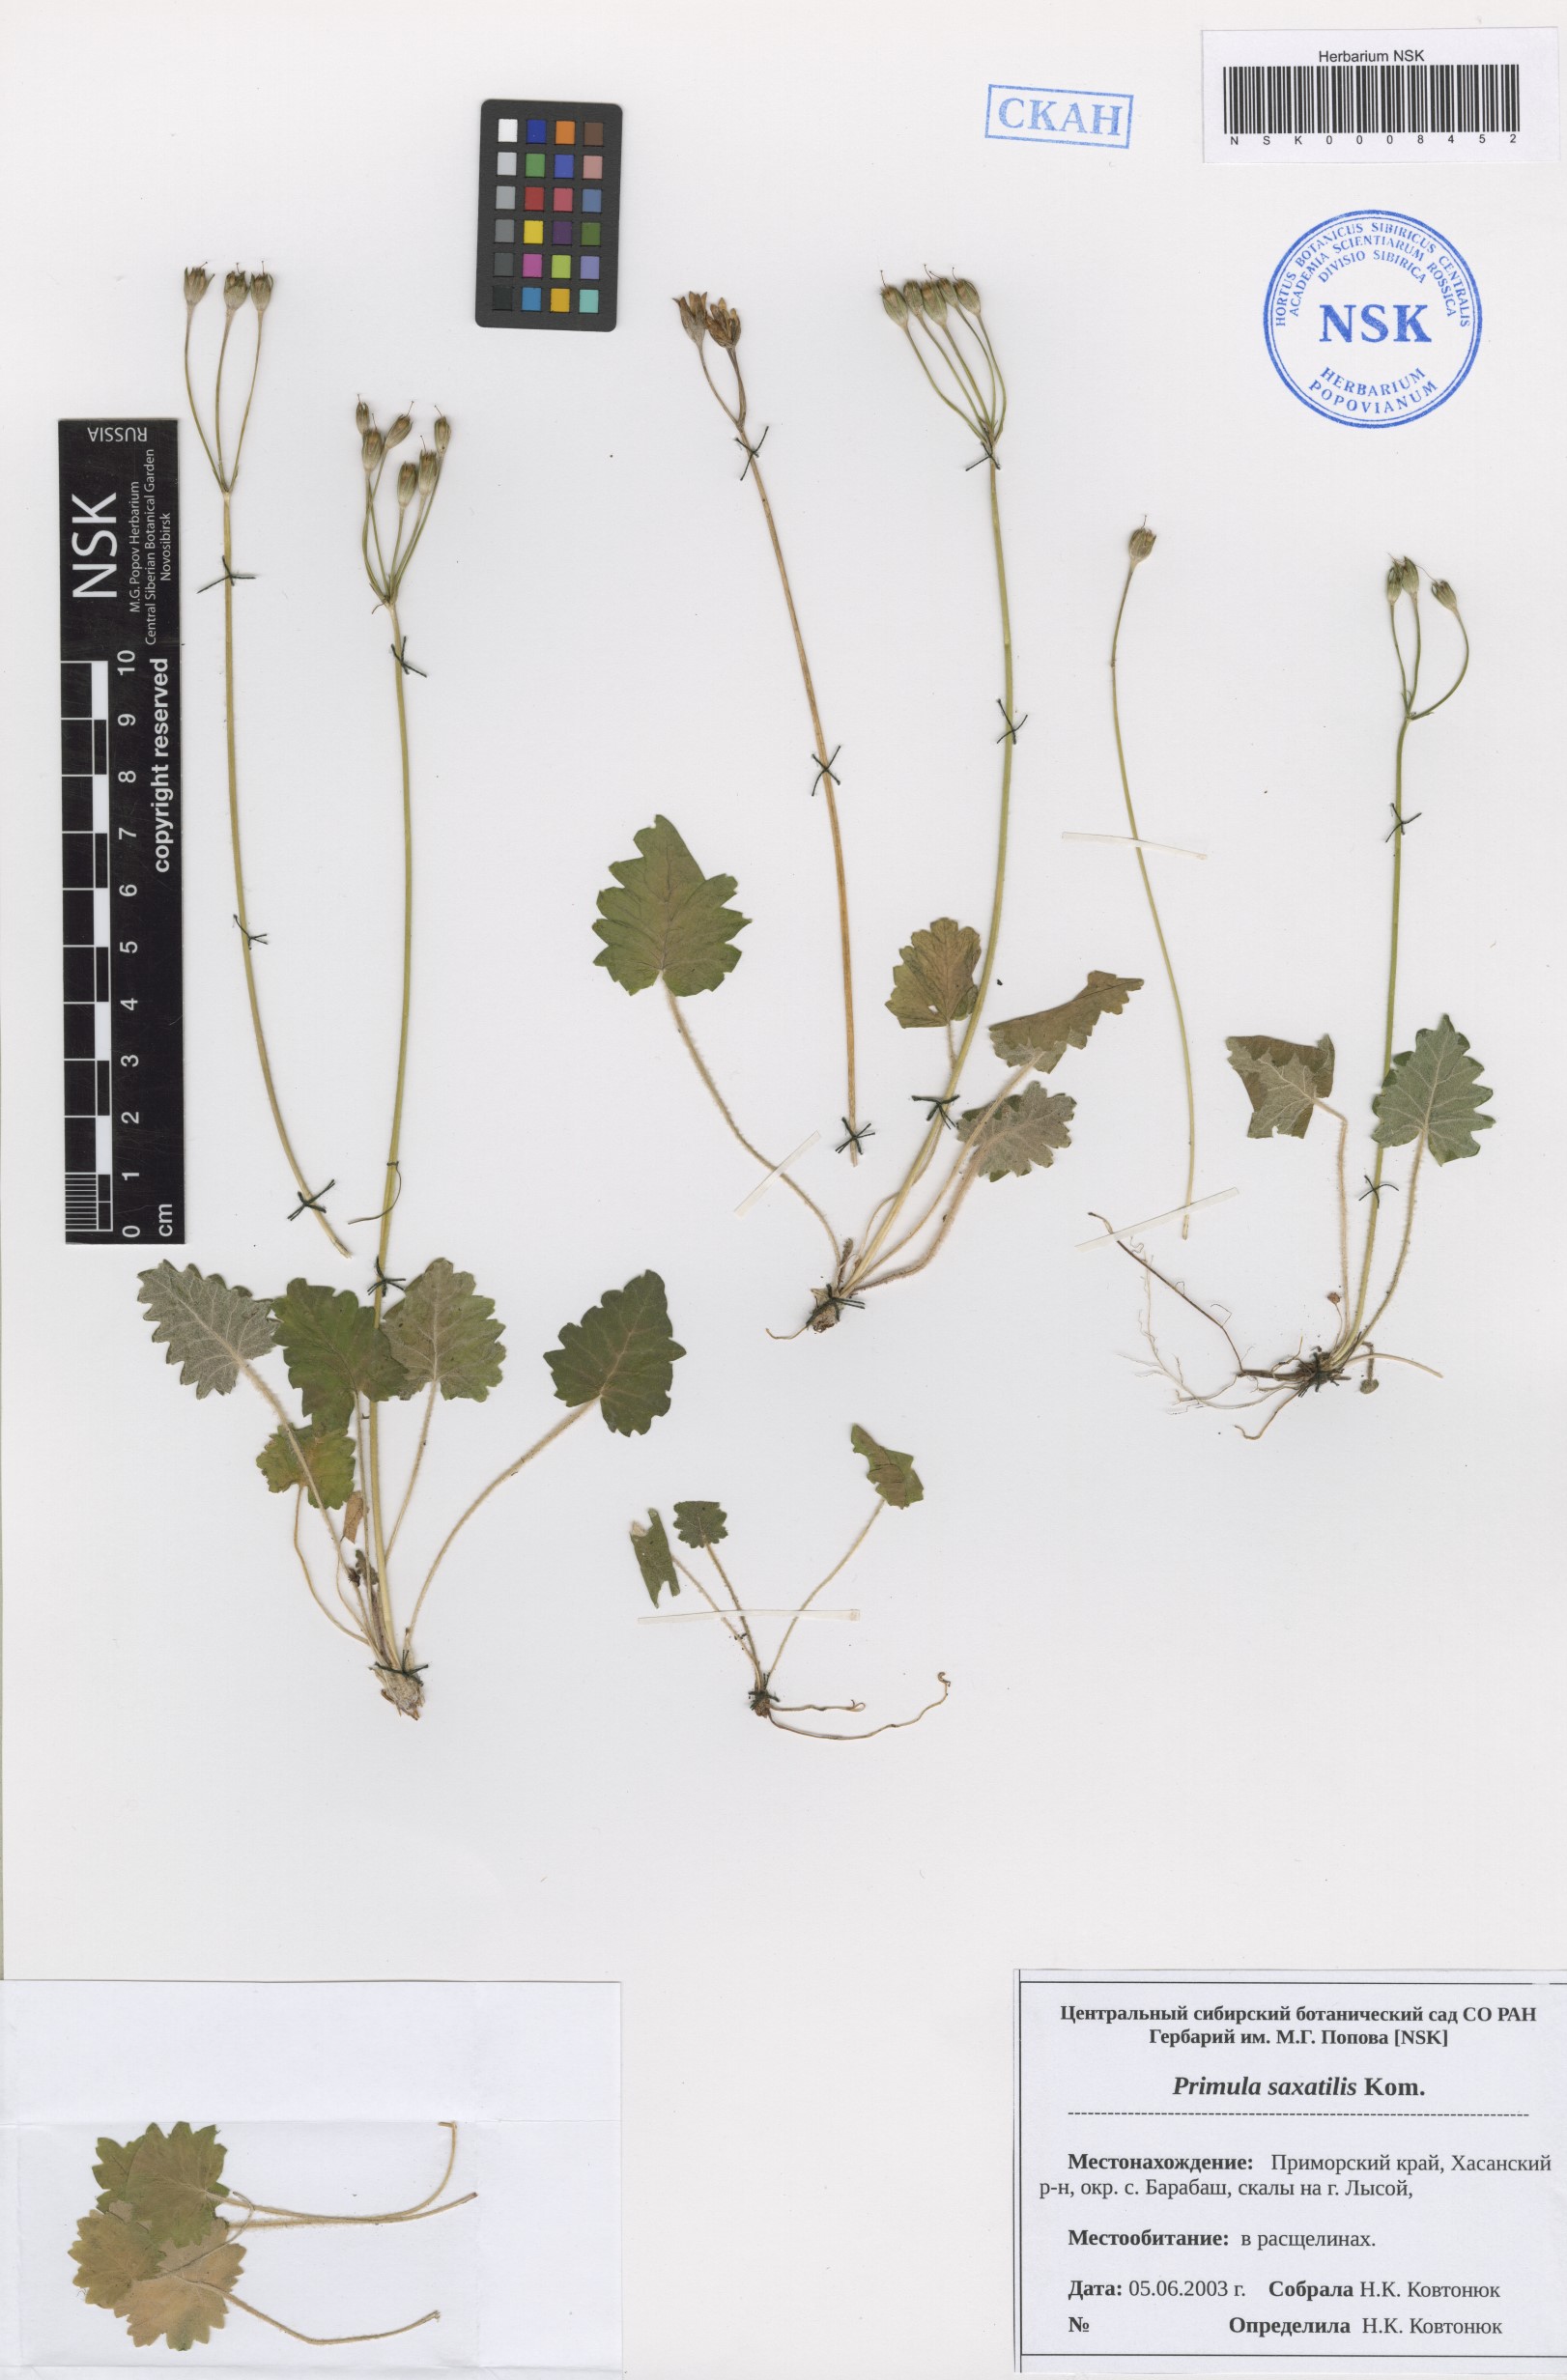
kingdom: Plantae
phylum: Tracheophyta
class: Magnoliopsida
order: Ericales
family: Primulaceae
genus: Primula
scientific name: Primula saxatilis
